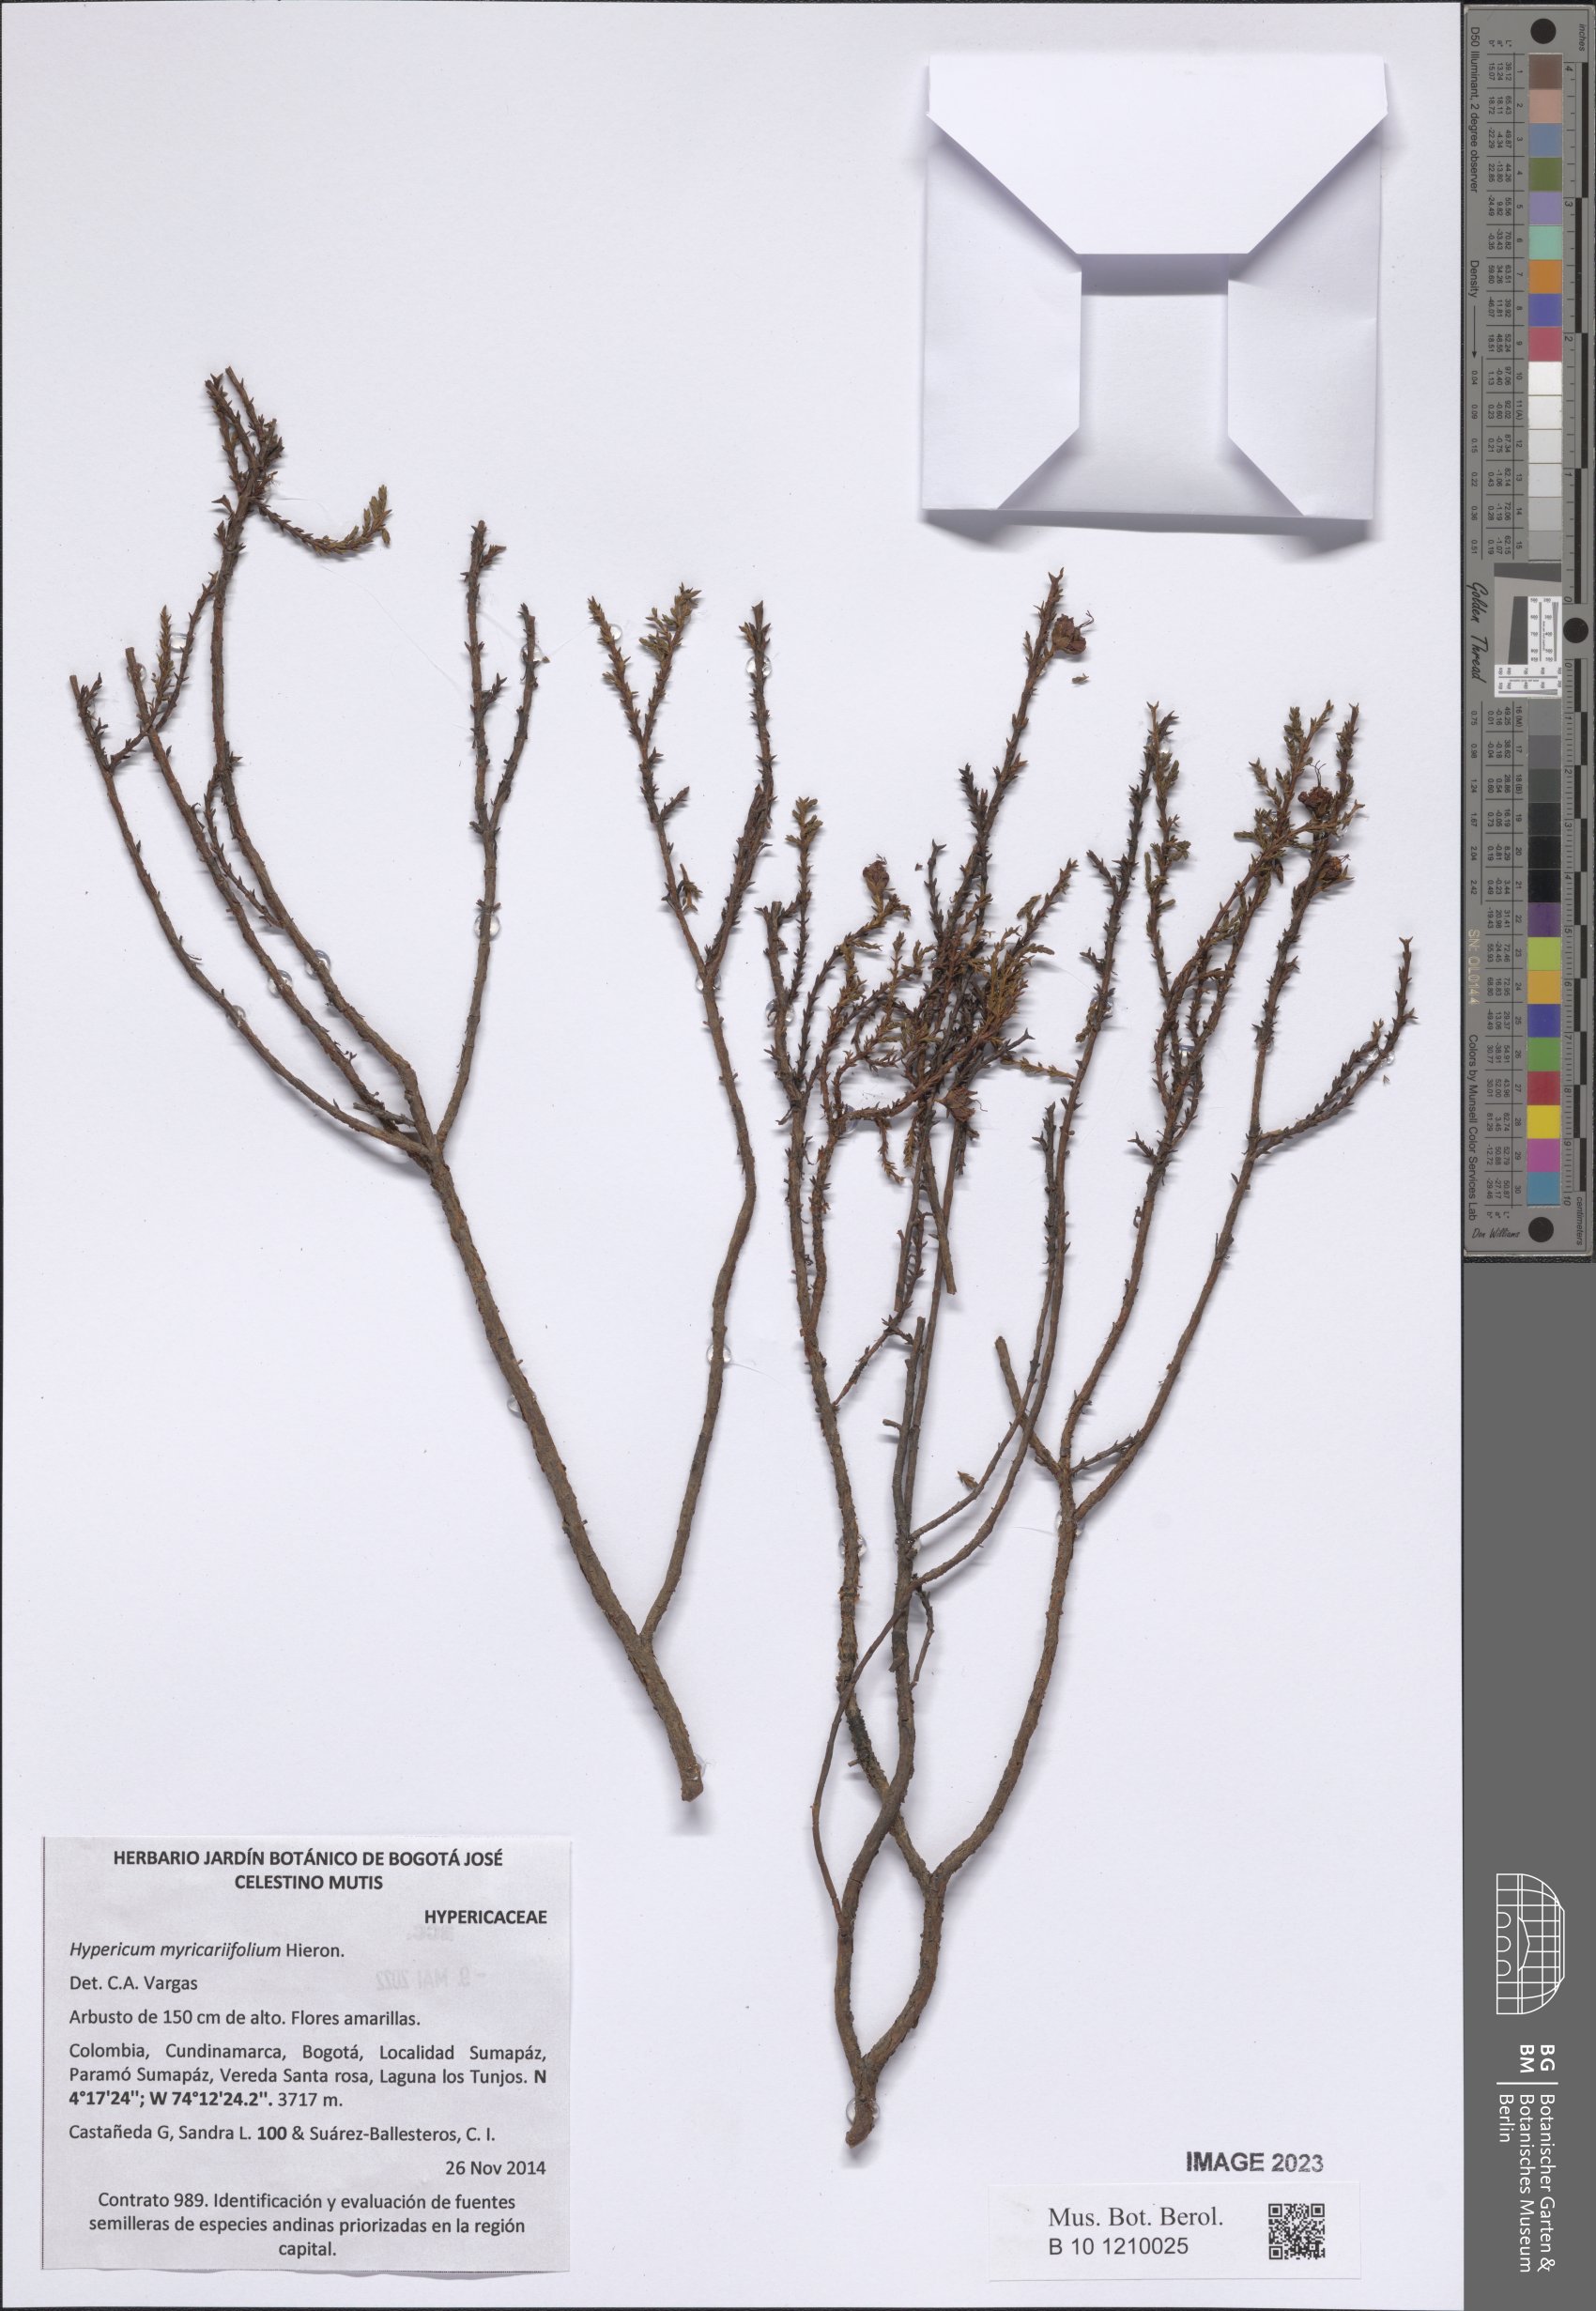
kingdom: Plantae
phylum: Tracheophyta
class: Magnoliopsida
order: Malpighiales
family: Hypericaceae
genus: Hypericum
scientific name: Hypericum myricariifolium
